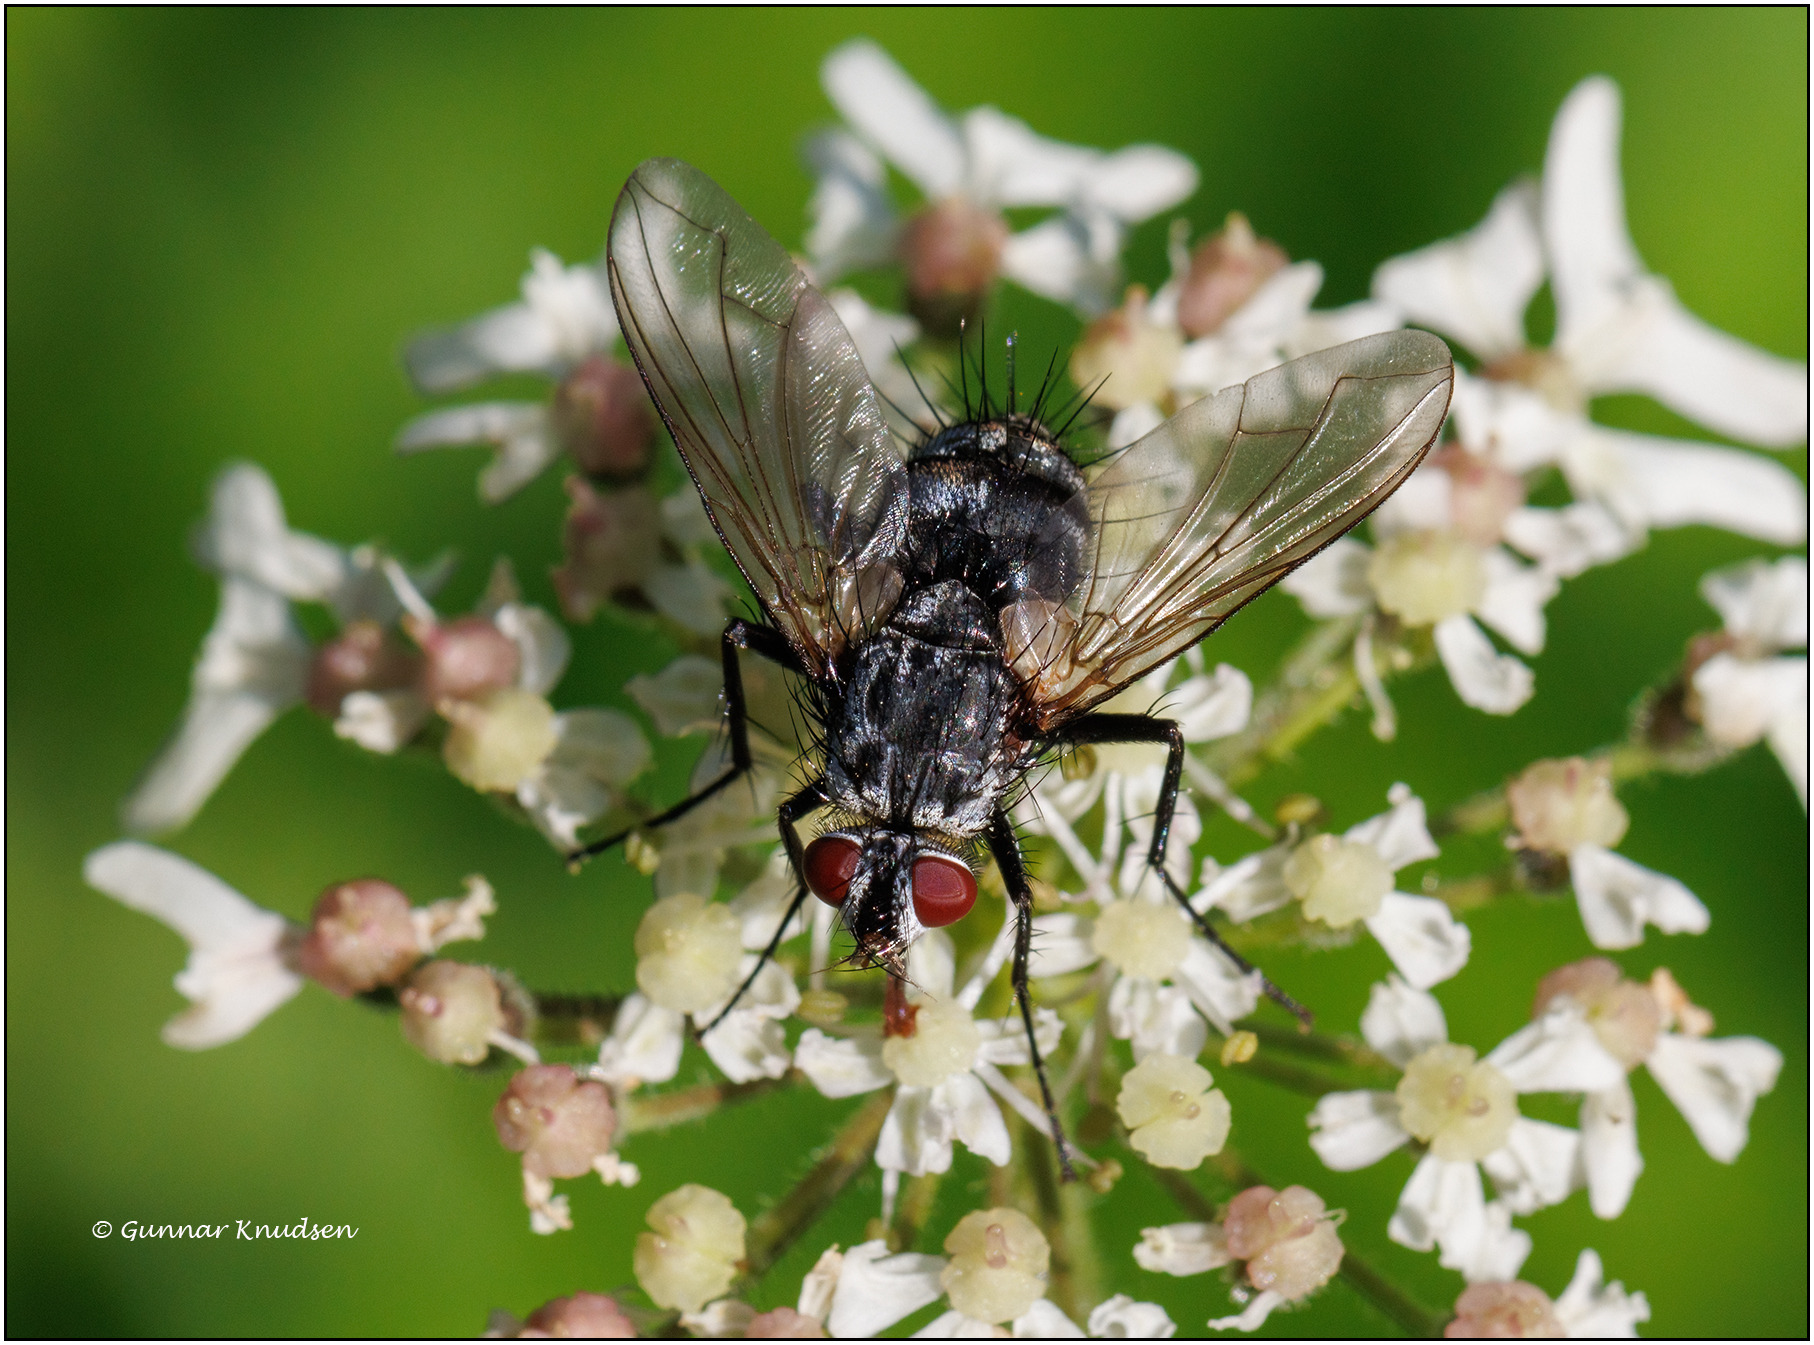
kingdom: Animalia
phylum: Arthropoda
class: Insecta
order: Diptera
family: Tachinidae
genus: Dinera
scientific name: Dinera ferina
